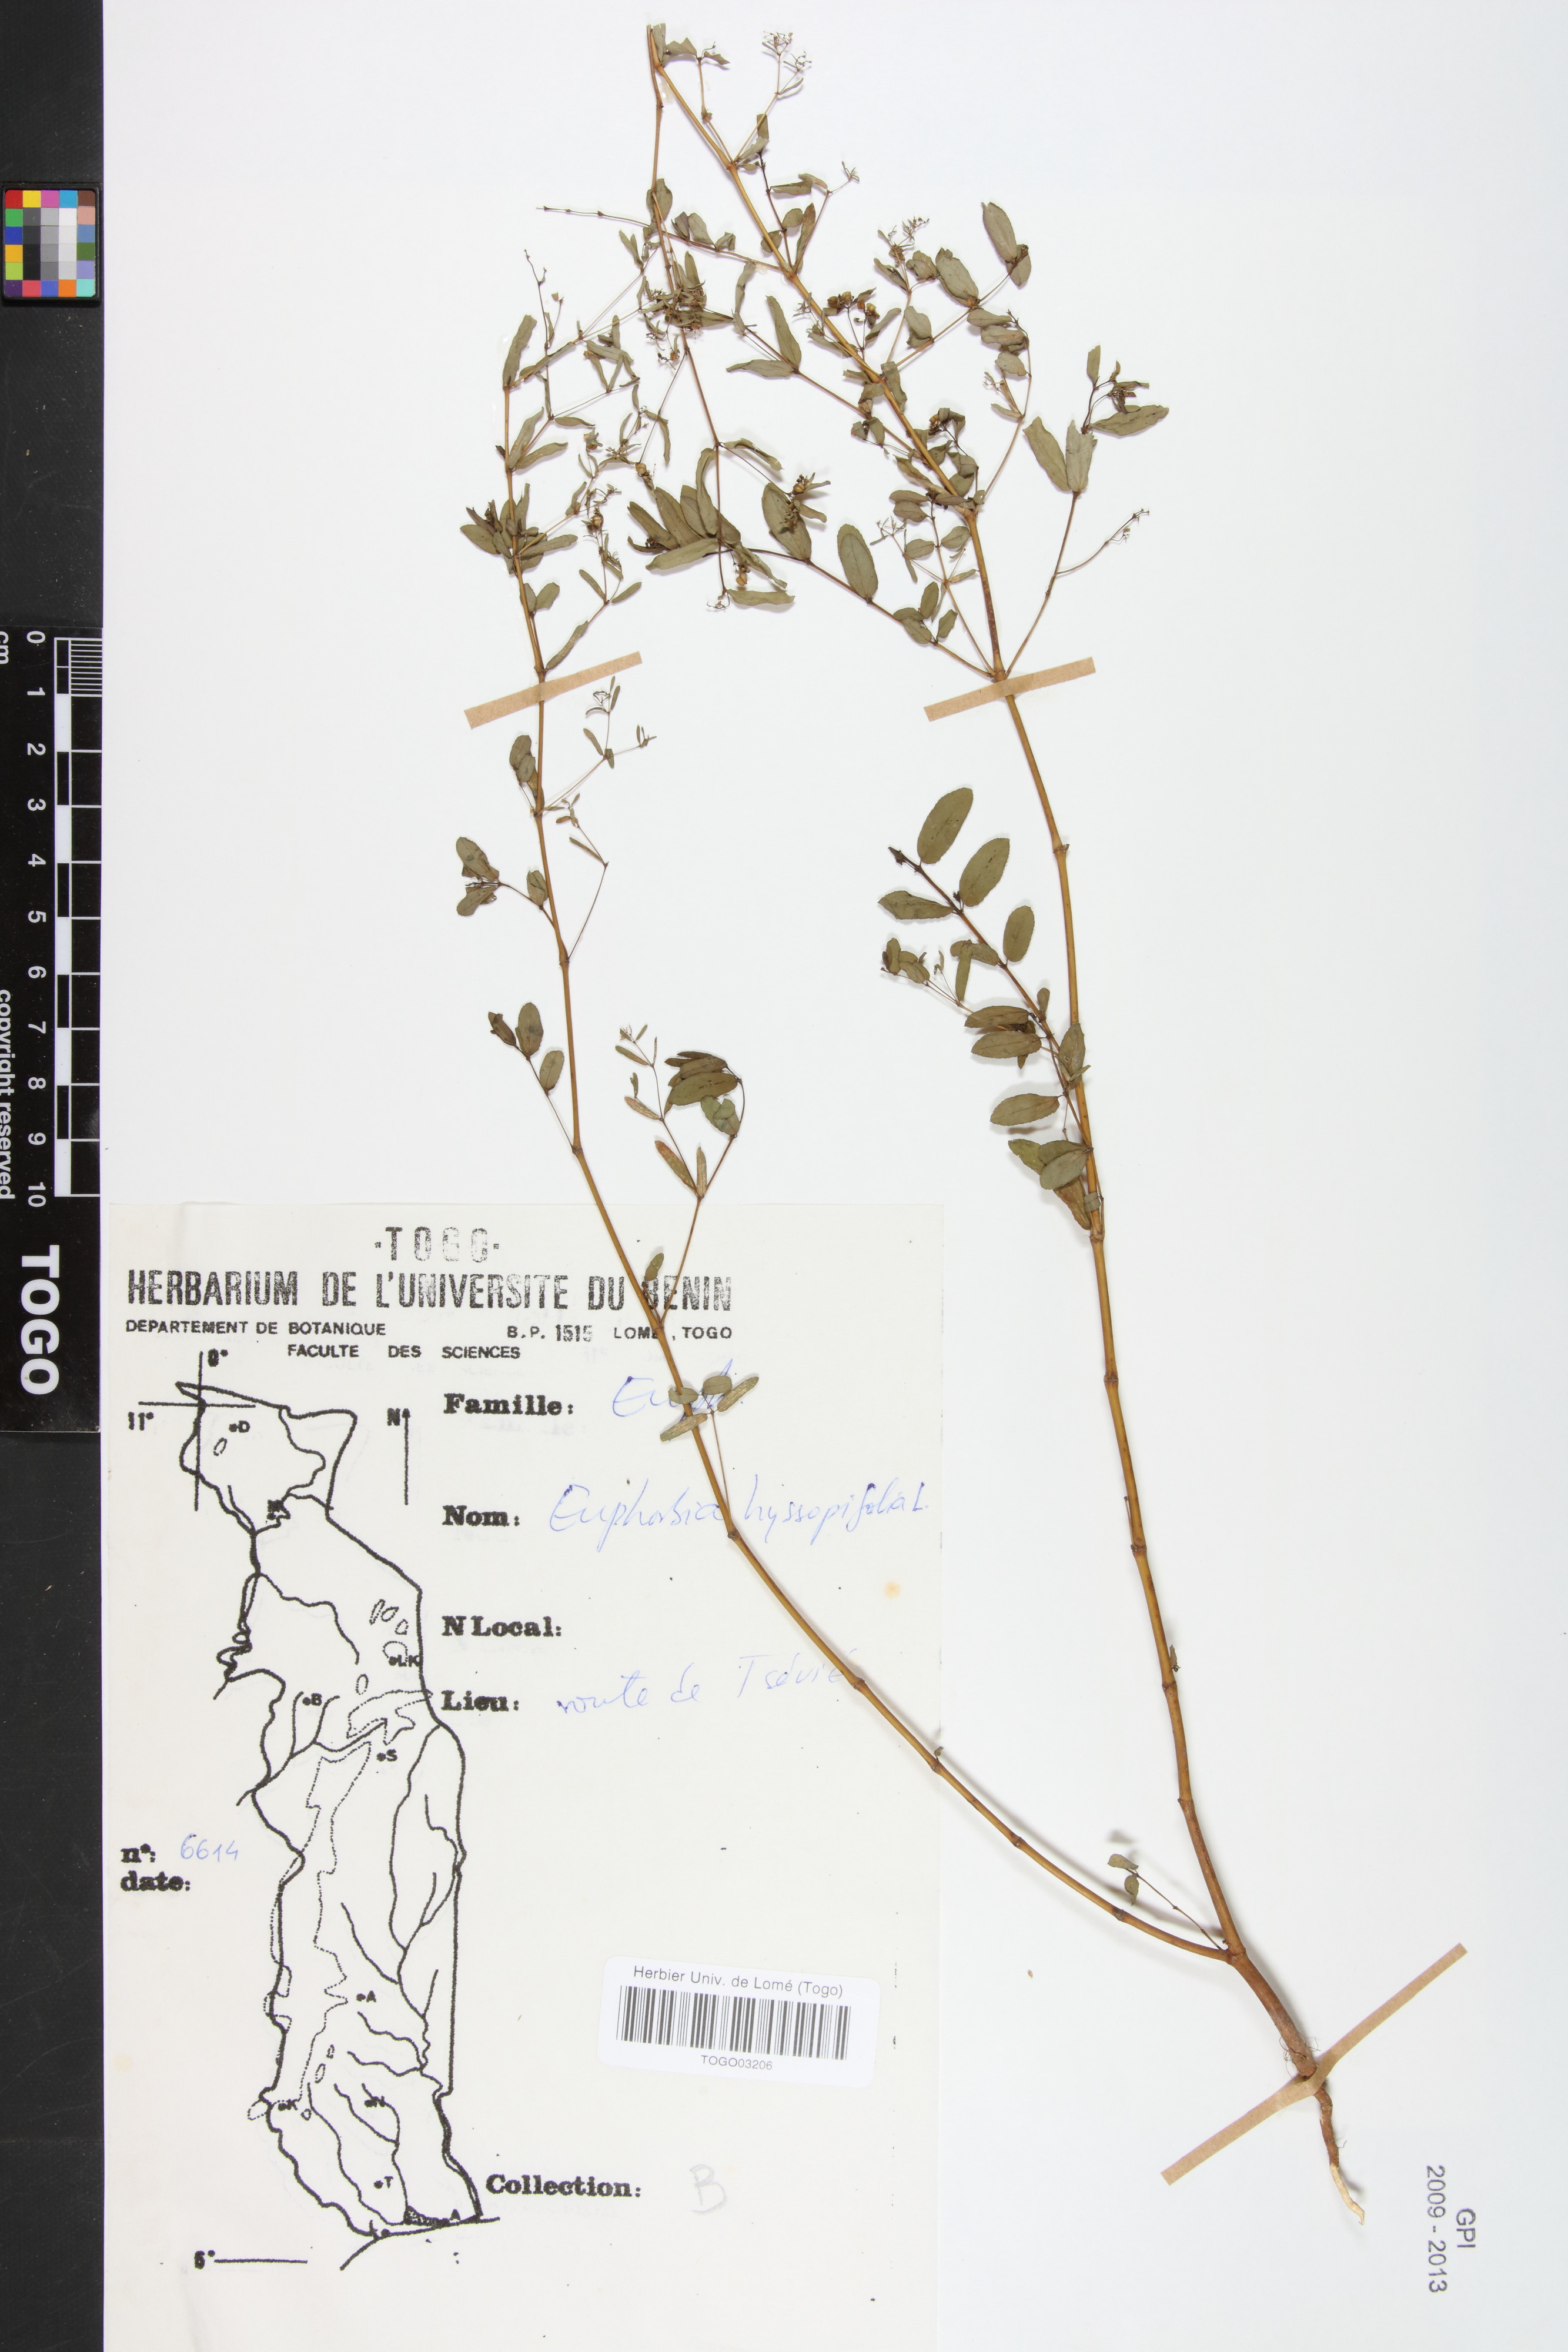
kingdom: Plantae
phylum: Tracheophyta
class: Magnoliopsida
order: Malpighiales
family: Euphorbiaceae
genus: Euphorbia
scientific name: Euphorbia hyssopifolia
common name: Hyssopleaf sandmat
